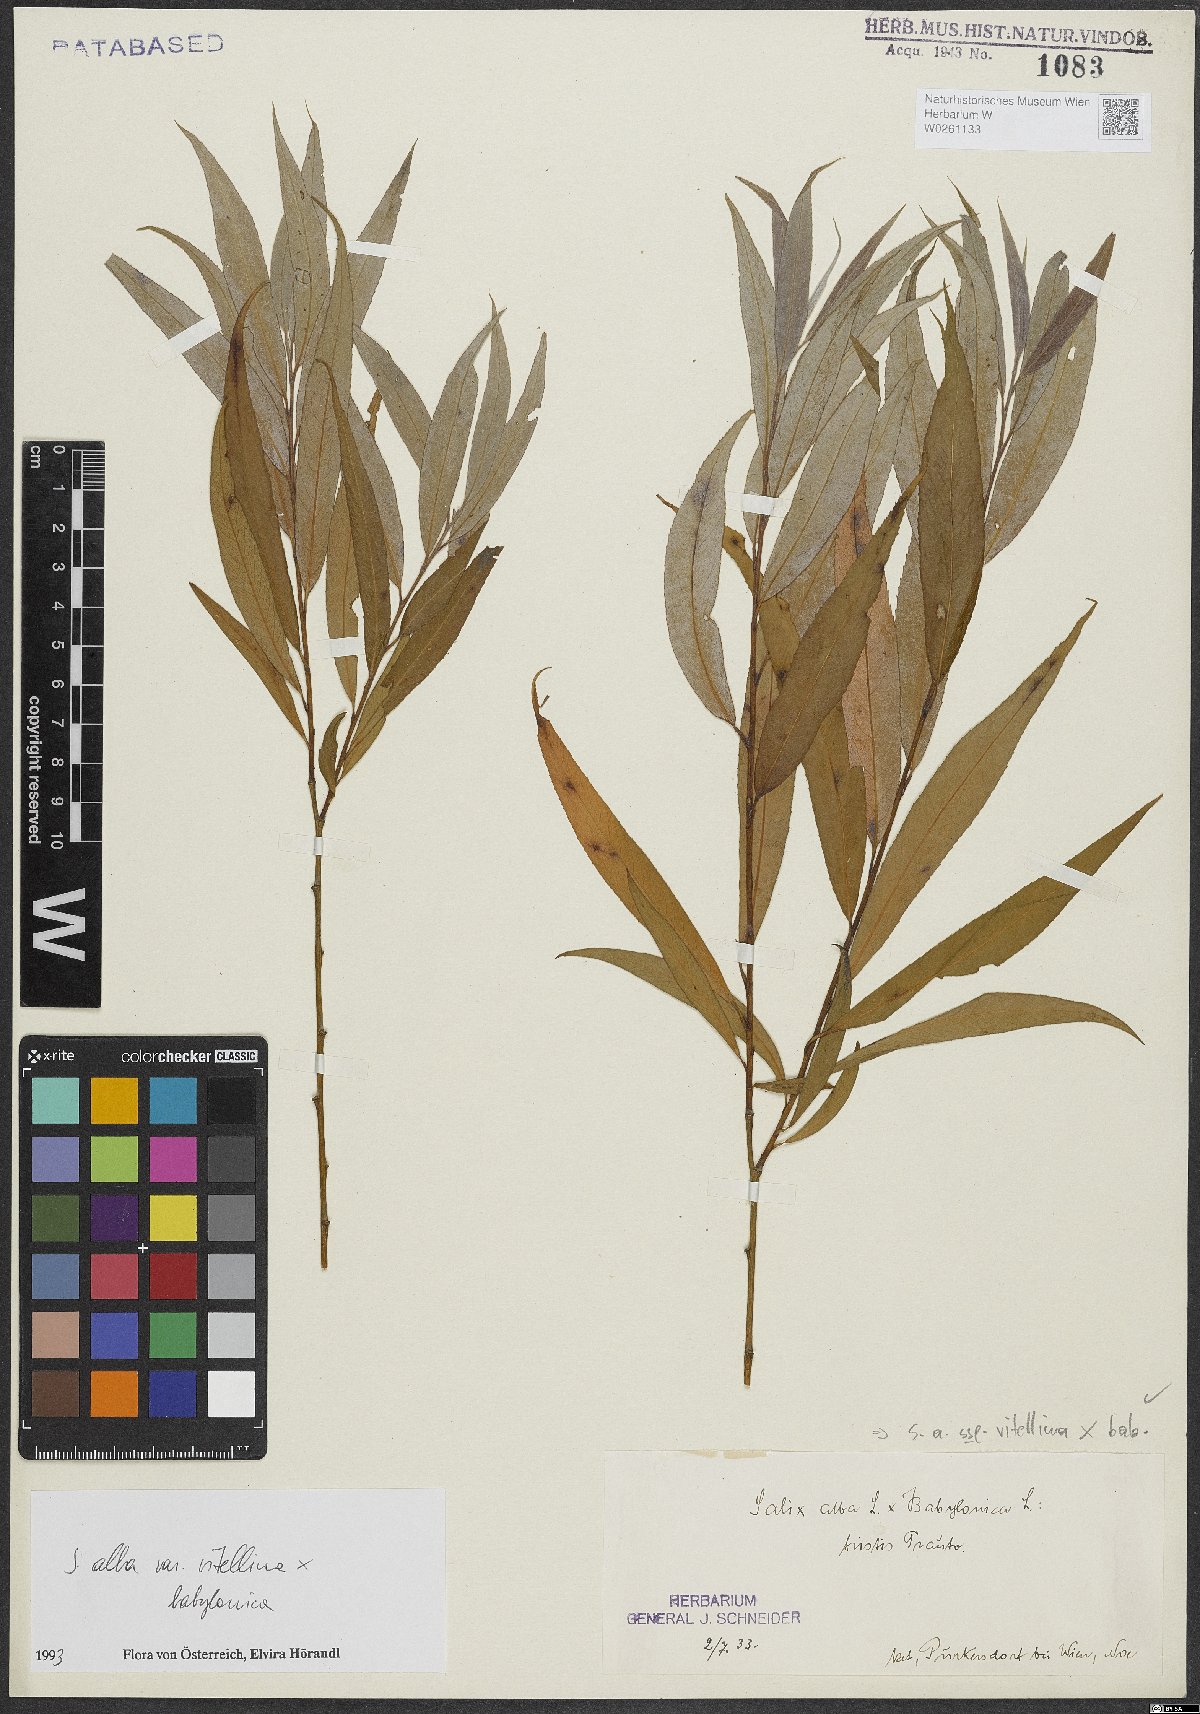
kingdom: Plantae
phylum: Tracheophyta
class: Magnoliopsida
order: Malpighiales
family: Salicaceae
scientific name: Salicaceae
